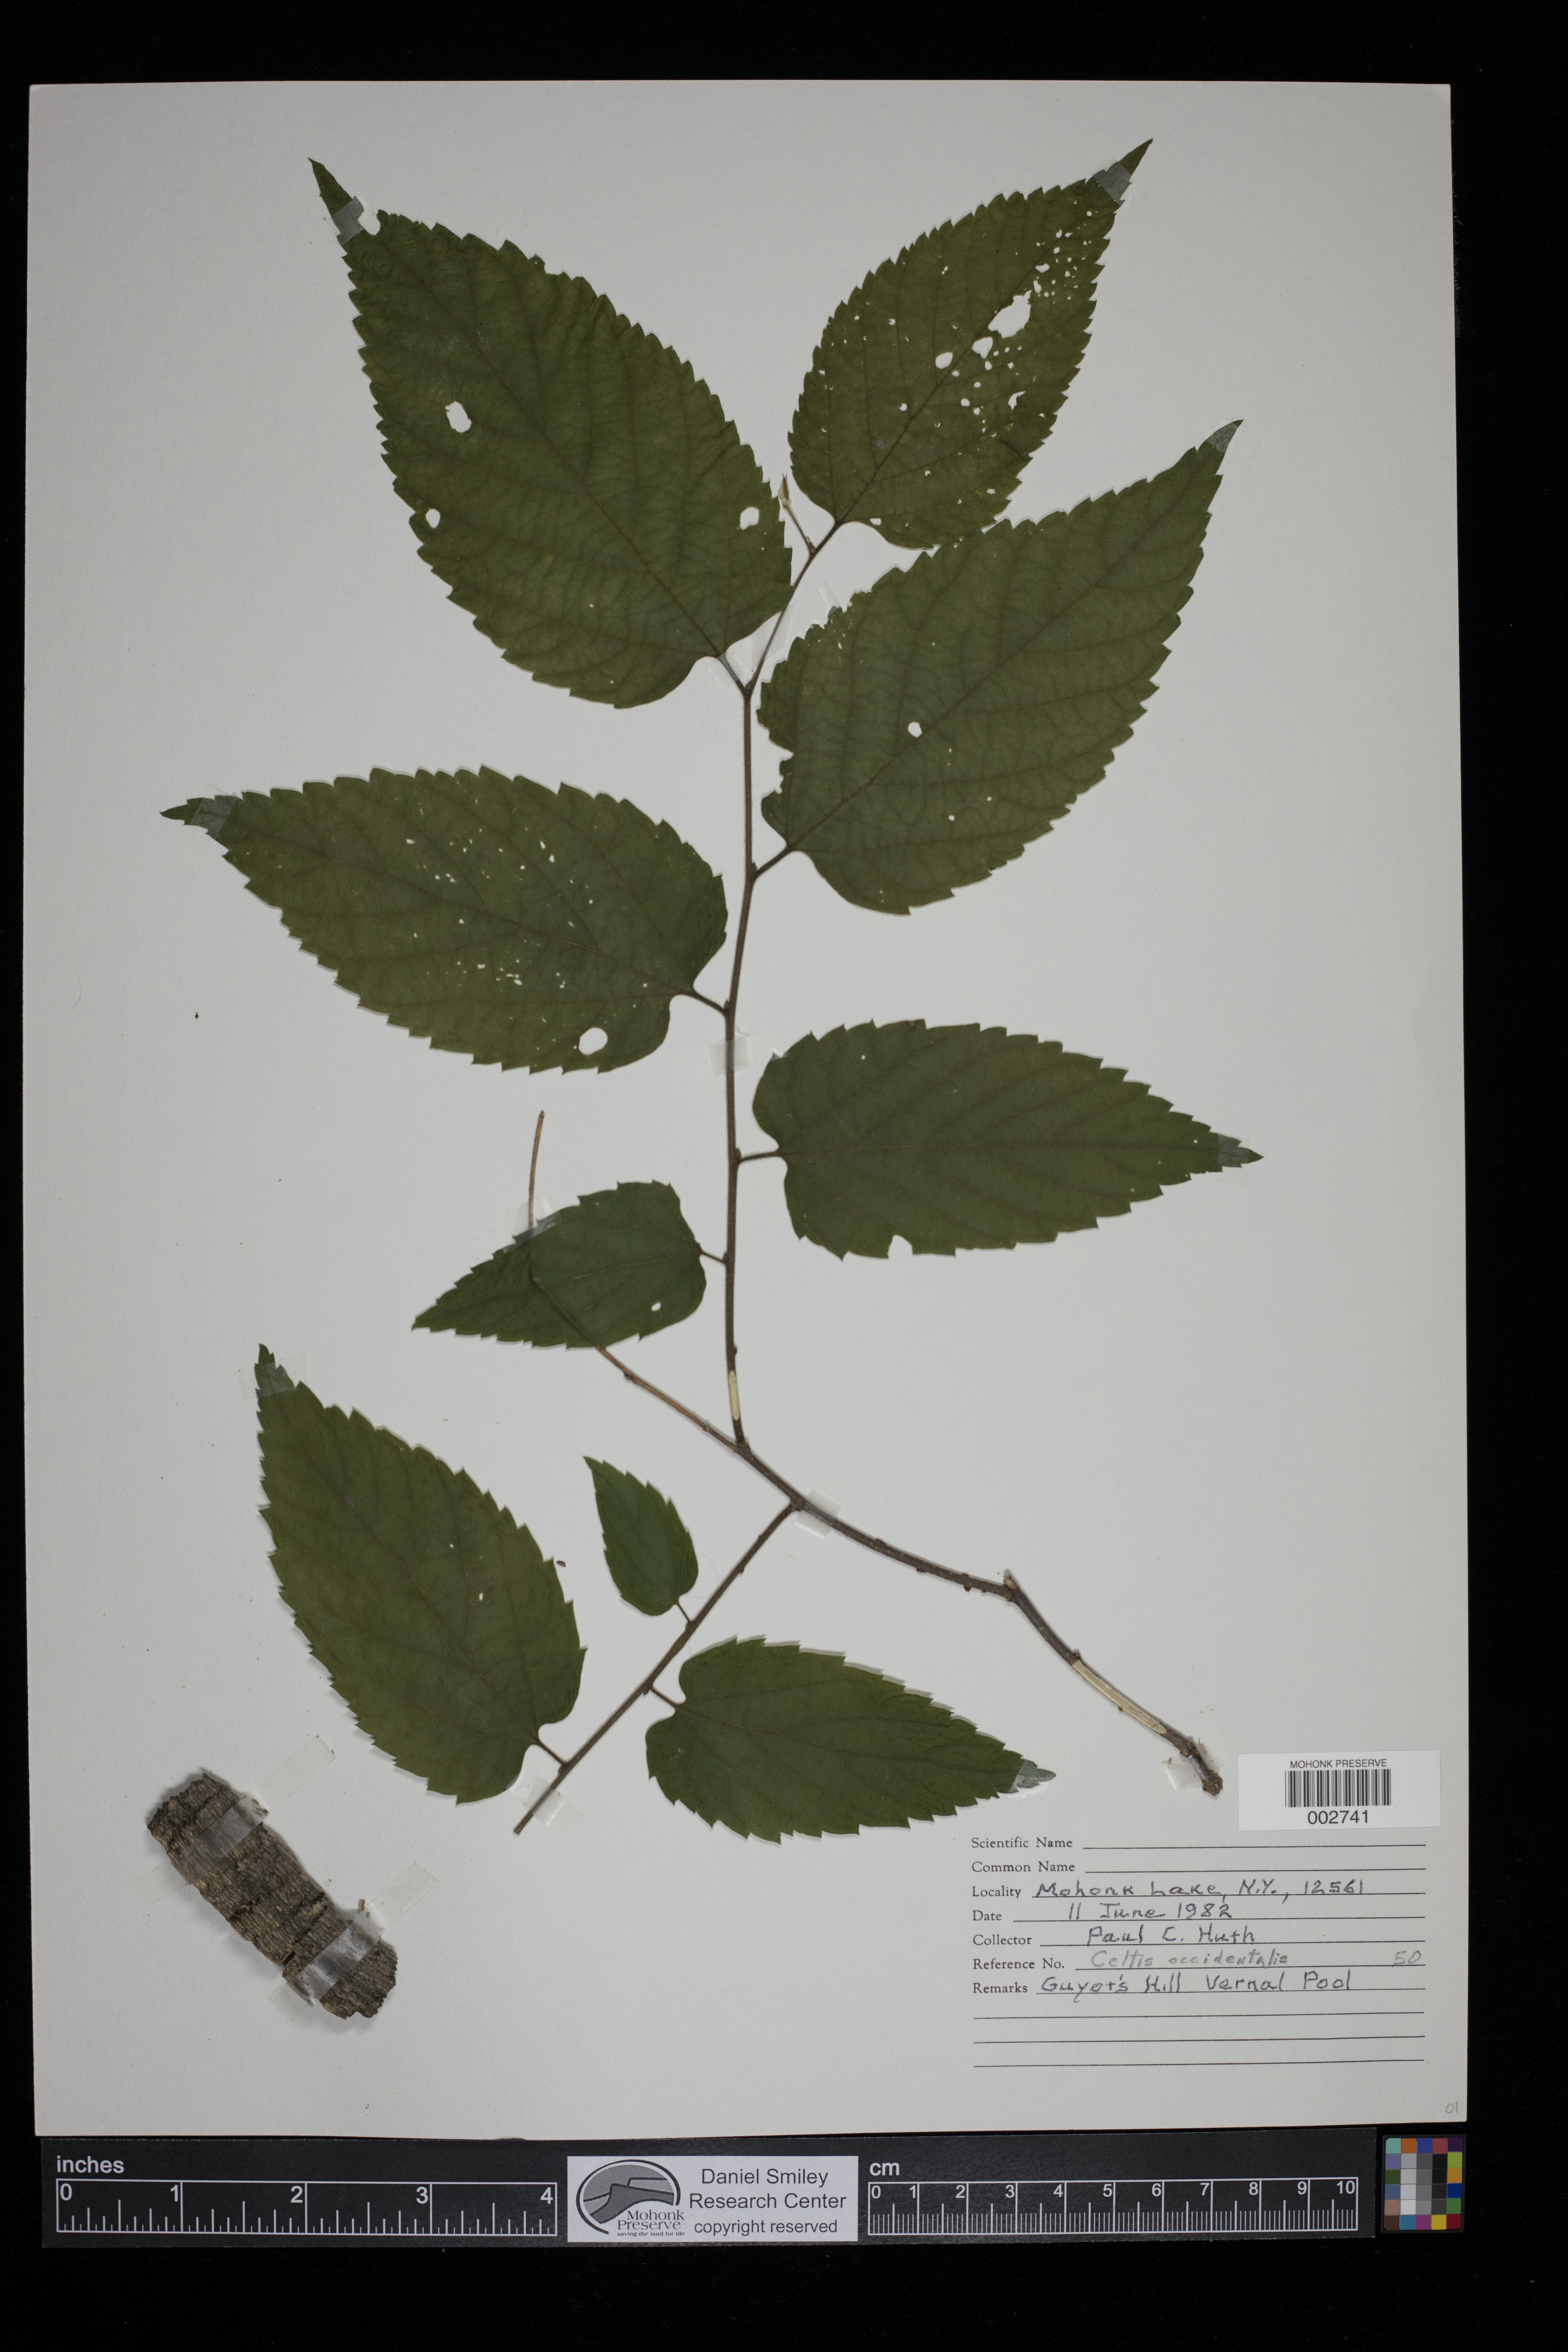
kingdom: Plantae
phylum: Tracheophyta
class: Magnoliopsida
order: Rosales
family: Cannabaceae
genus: Celtis
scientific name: Celtis occidentalis
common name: Common hackberry
